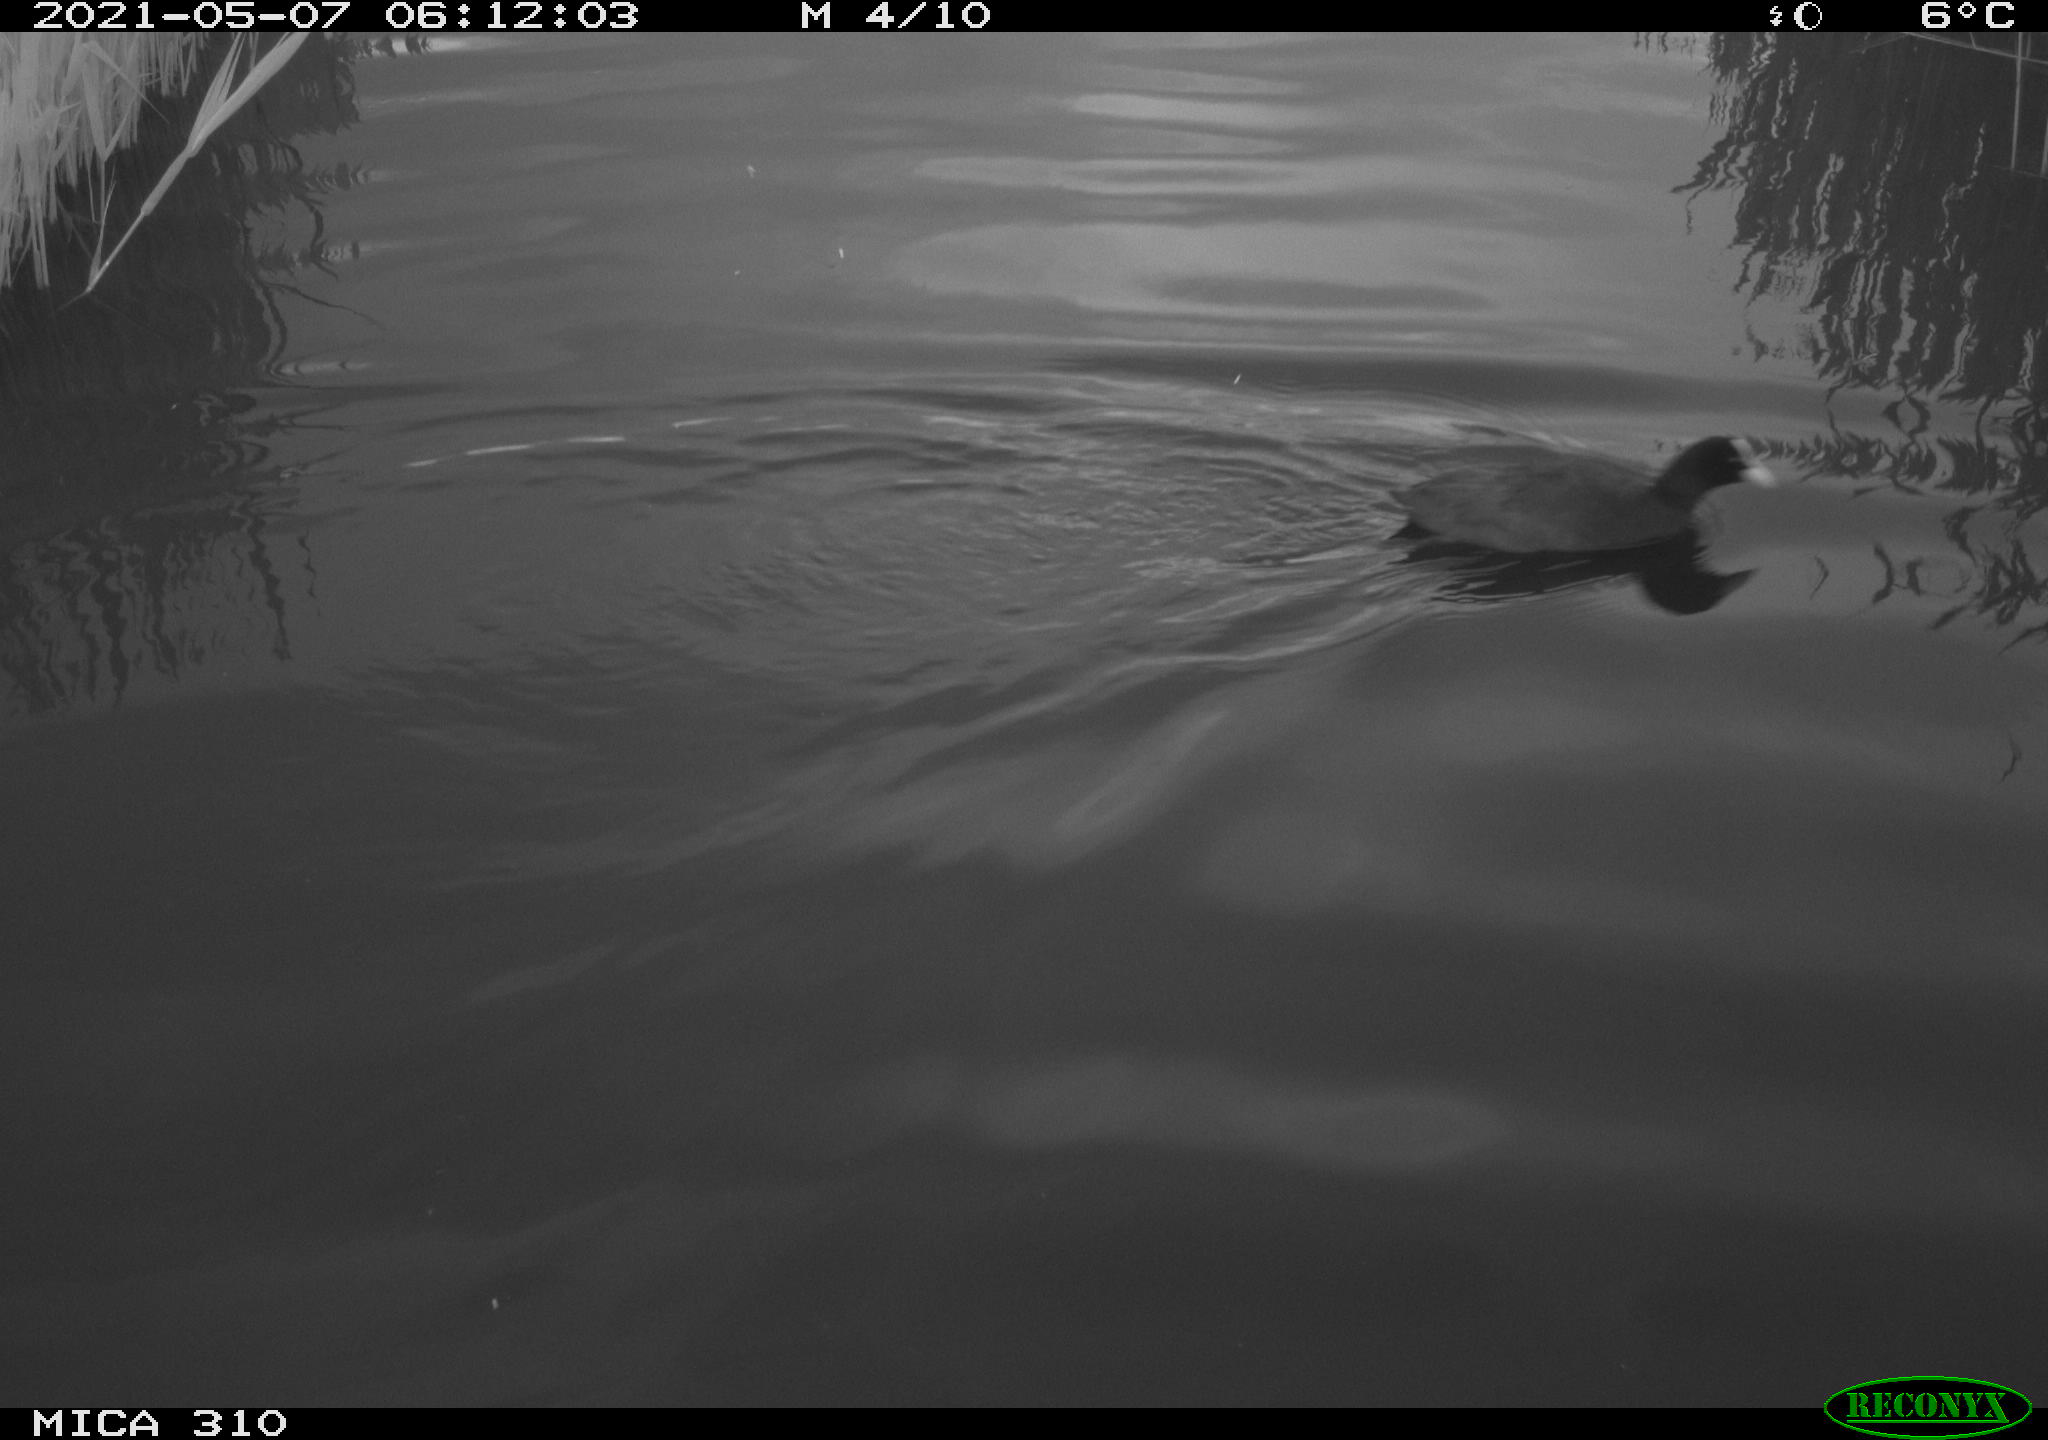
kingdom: Animalia
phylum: Chordata
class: Aves
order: Gruiformes
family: Rallidae
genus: Fulica
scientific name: Fulica atra
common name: Eurasian coot
